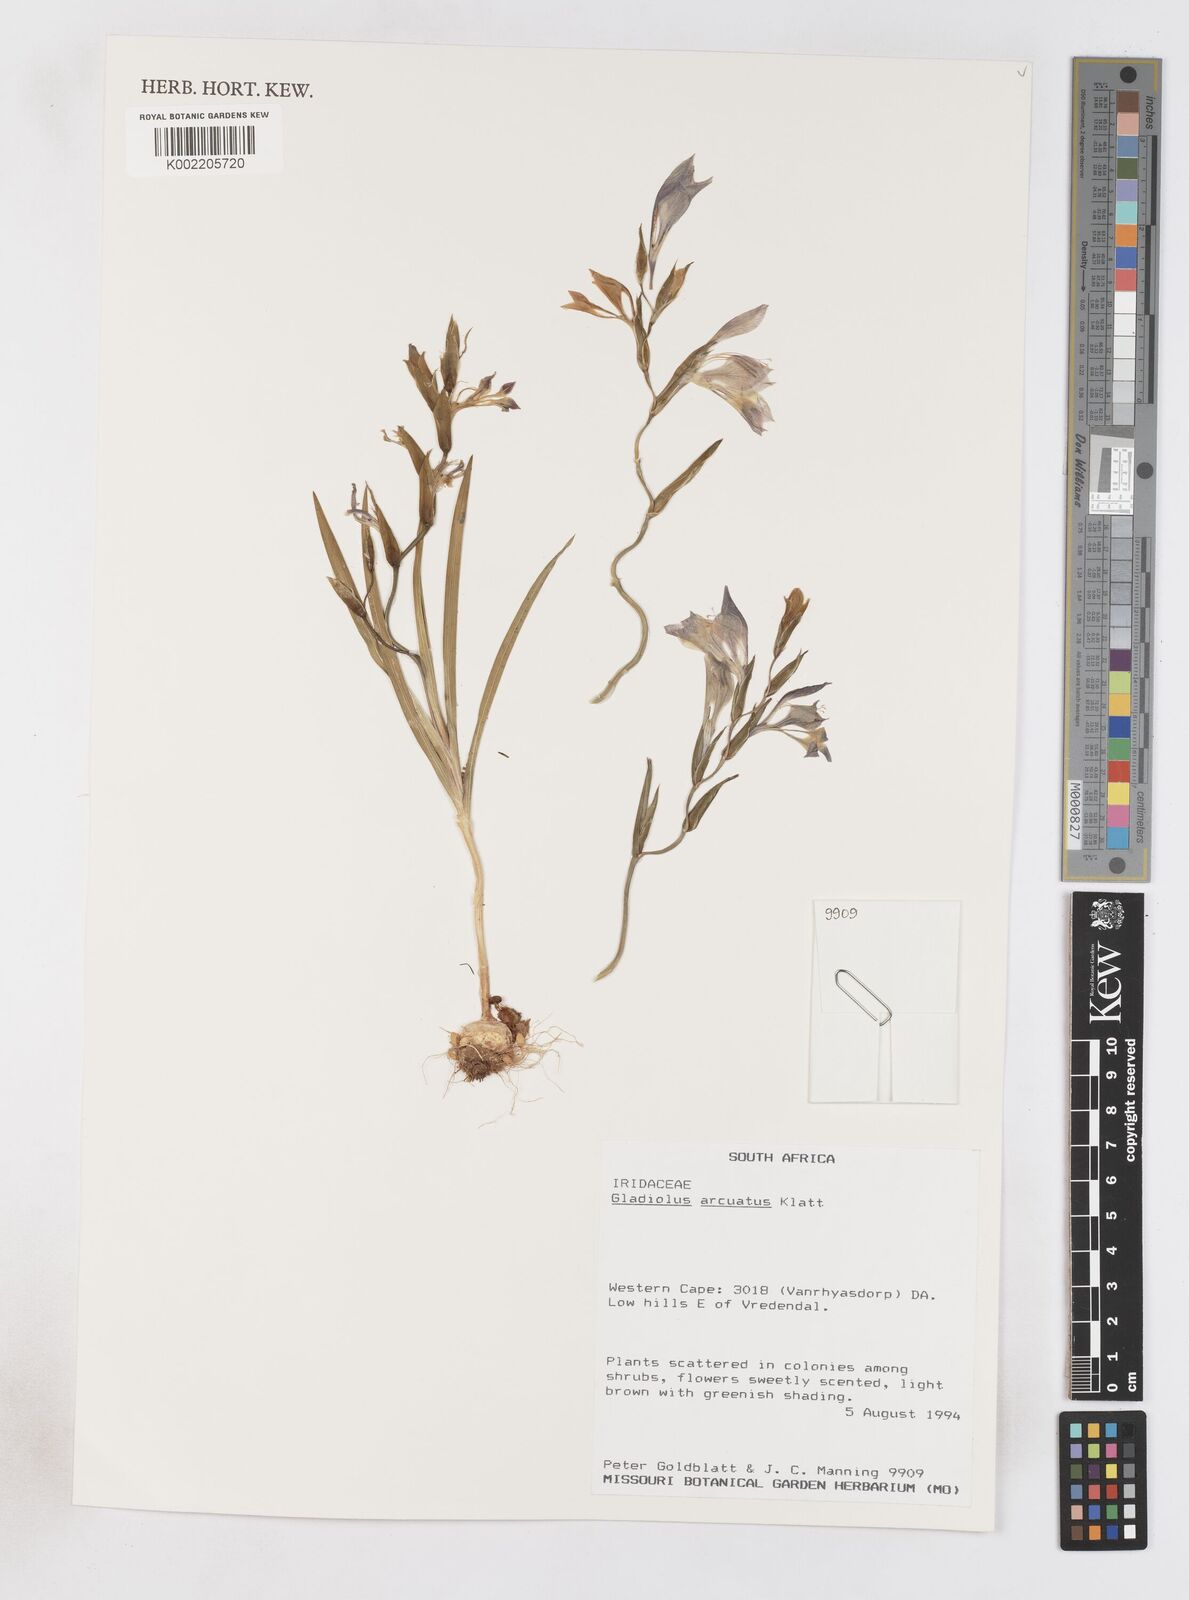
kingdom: Plantae
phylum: Tracheophyta
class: Liliopsida
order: Asparagales
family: Iridaceae
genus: Gladiolus
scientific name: Gladiolus arcuatus
